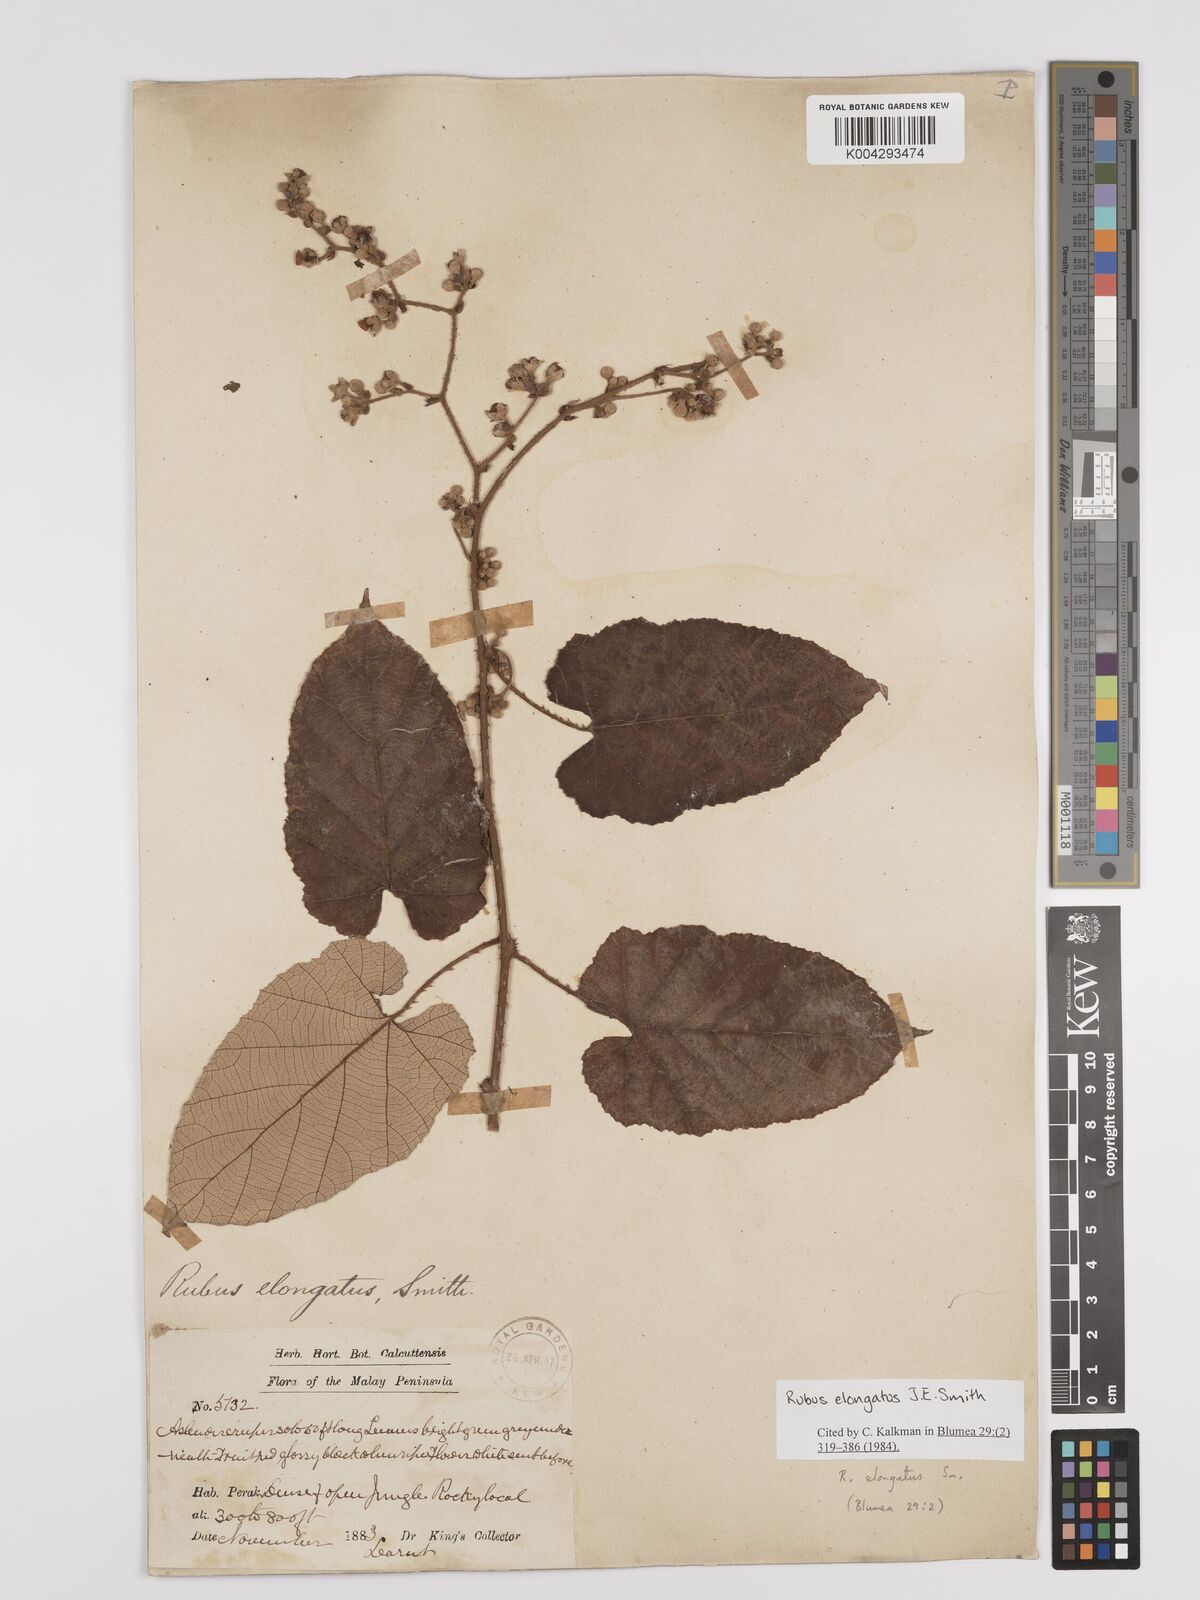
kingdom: Plantae
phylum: Tracheophyta
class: Magnoliopsida
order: Rosales
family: Rosaceae
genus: Rubus
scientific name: Rubus
